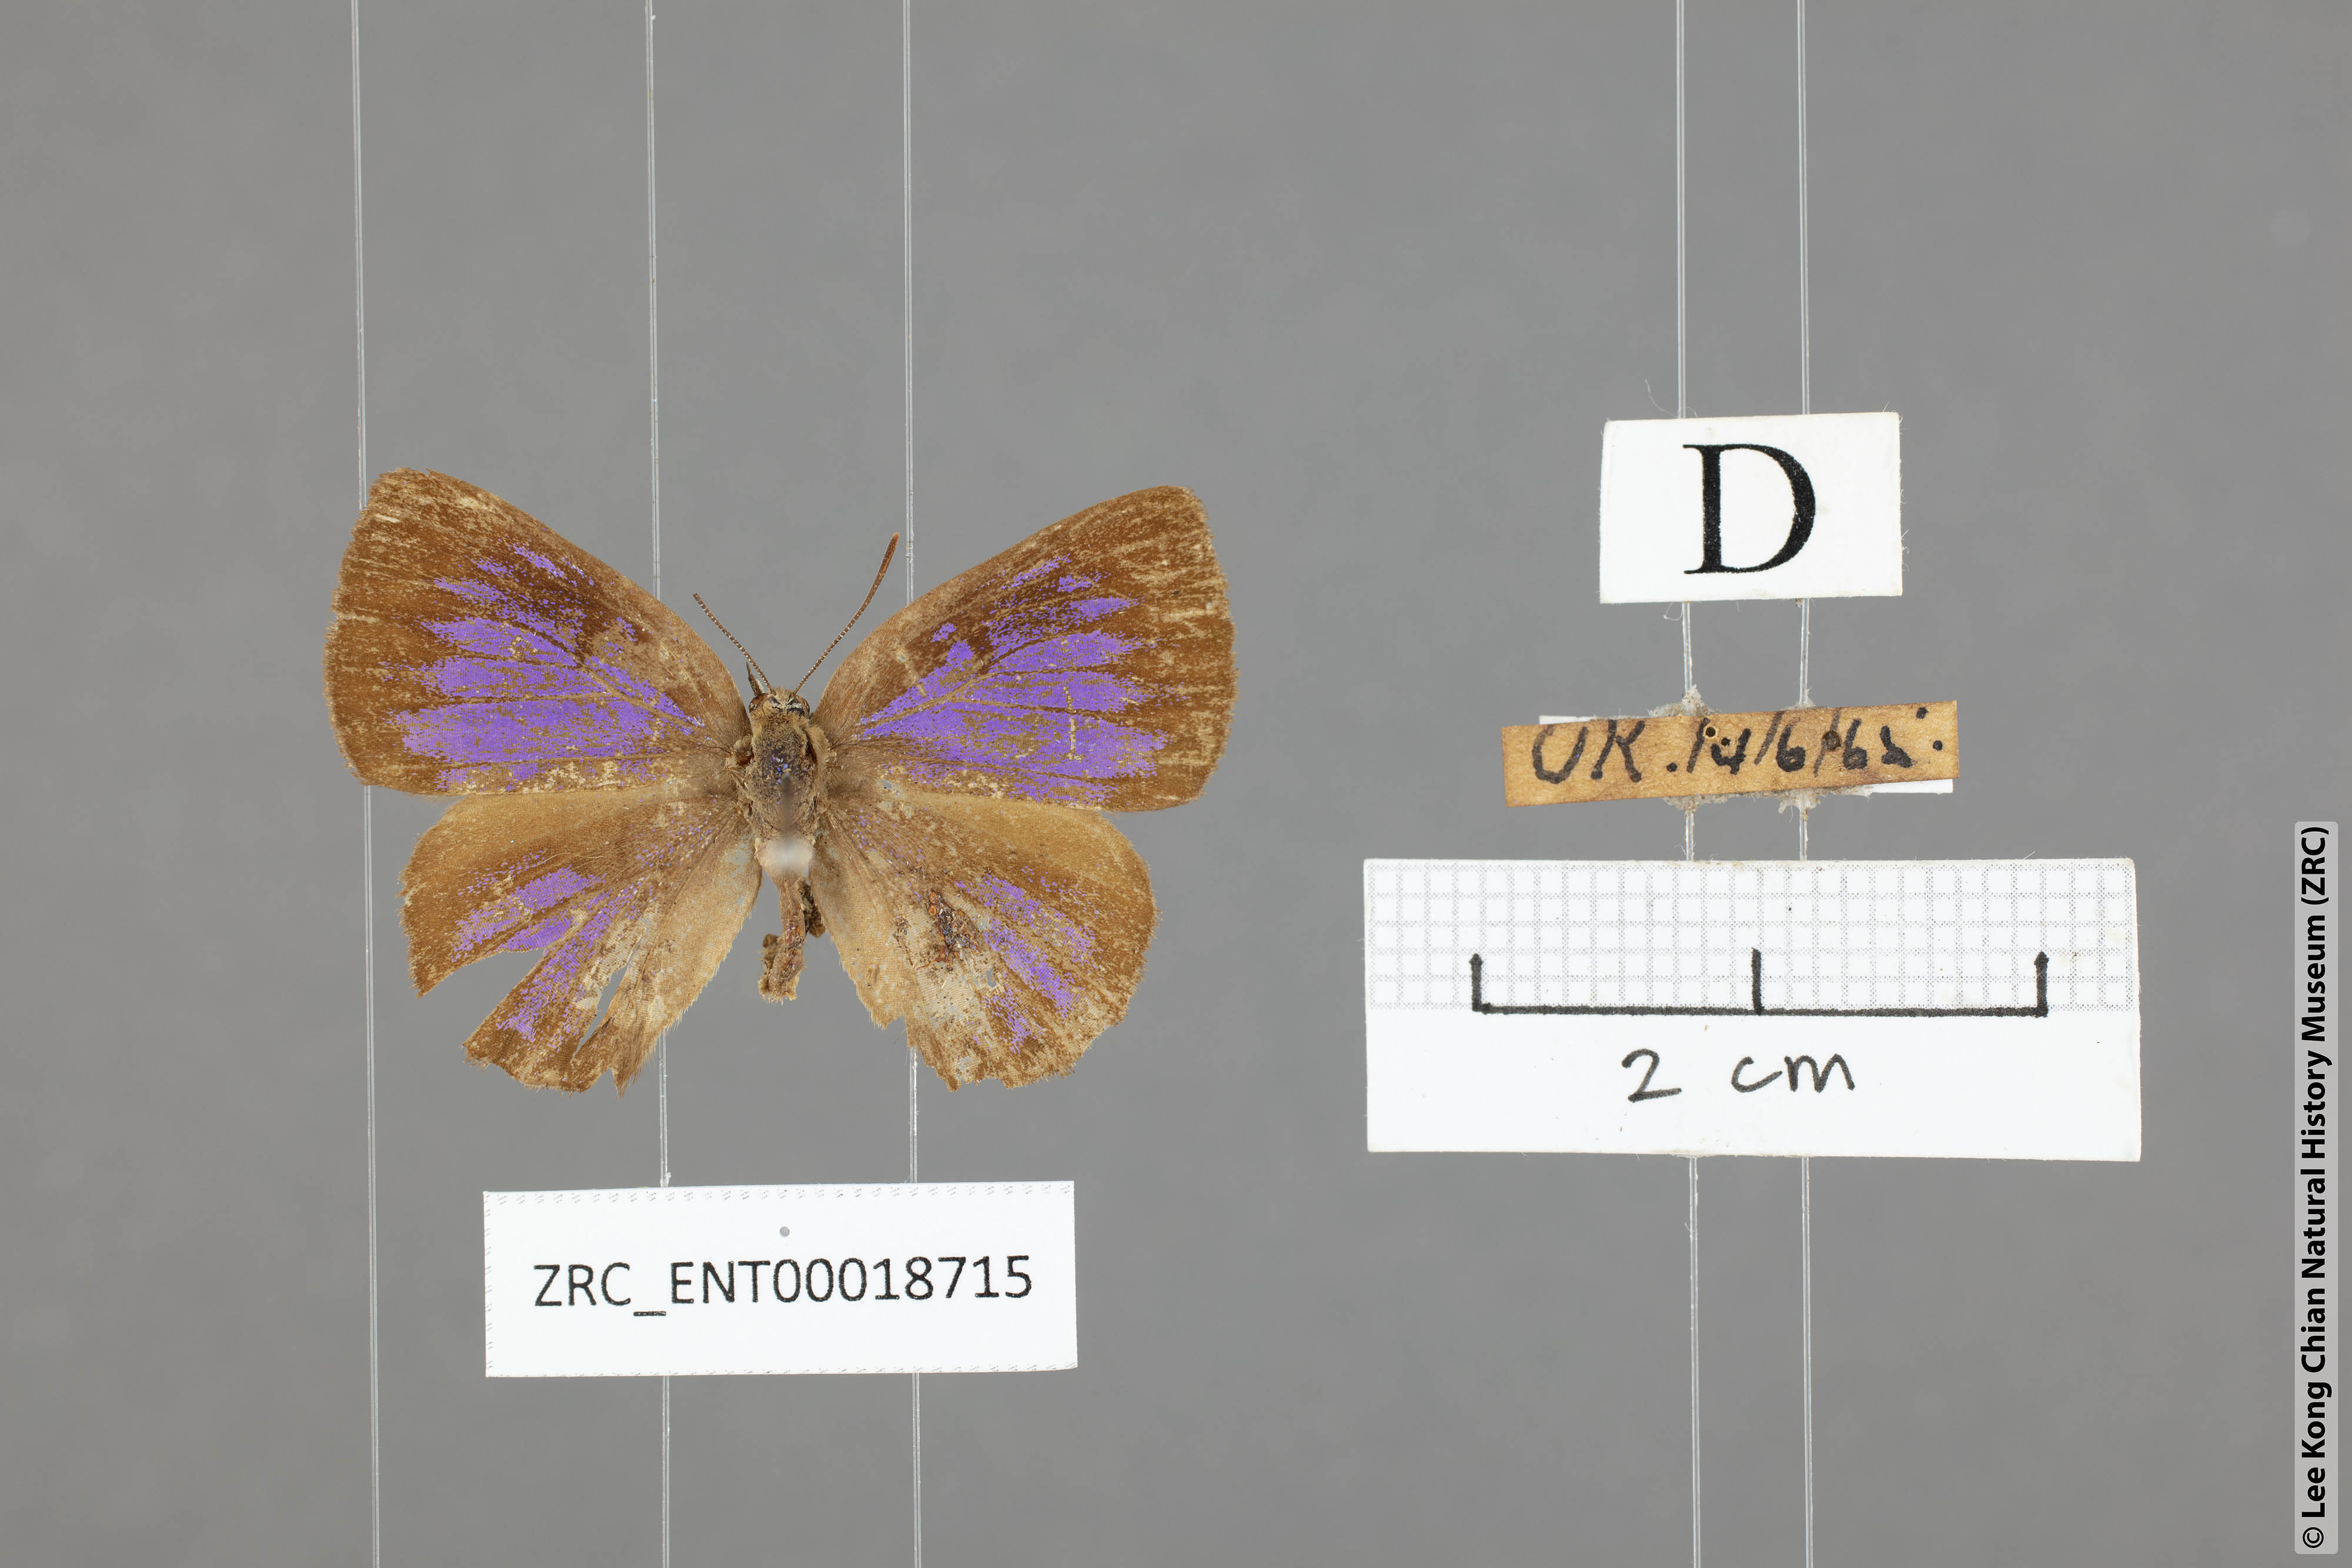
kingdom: Animalia
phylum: Arthropoda
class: Insecta
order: Lepidoptera
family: Lycaenidae
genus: Deramas
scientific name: Deramas jasodai
